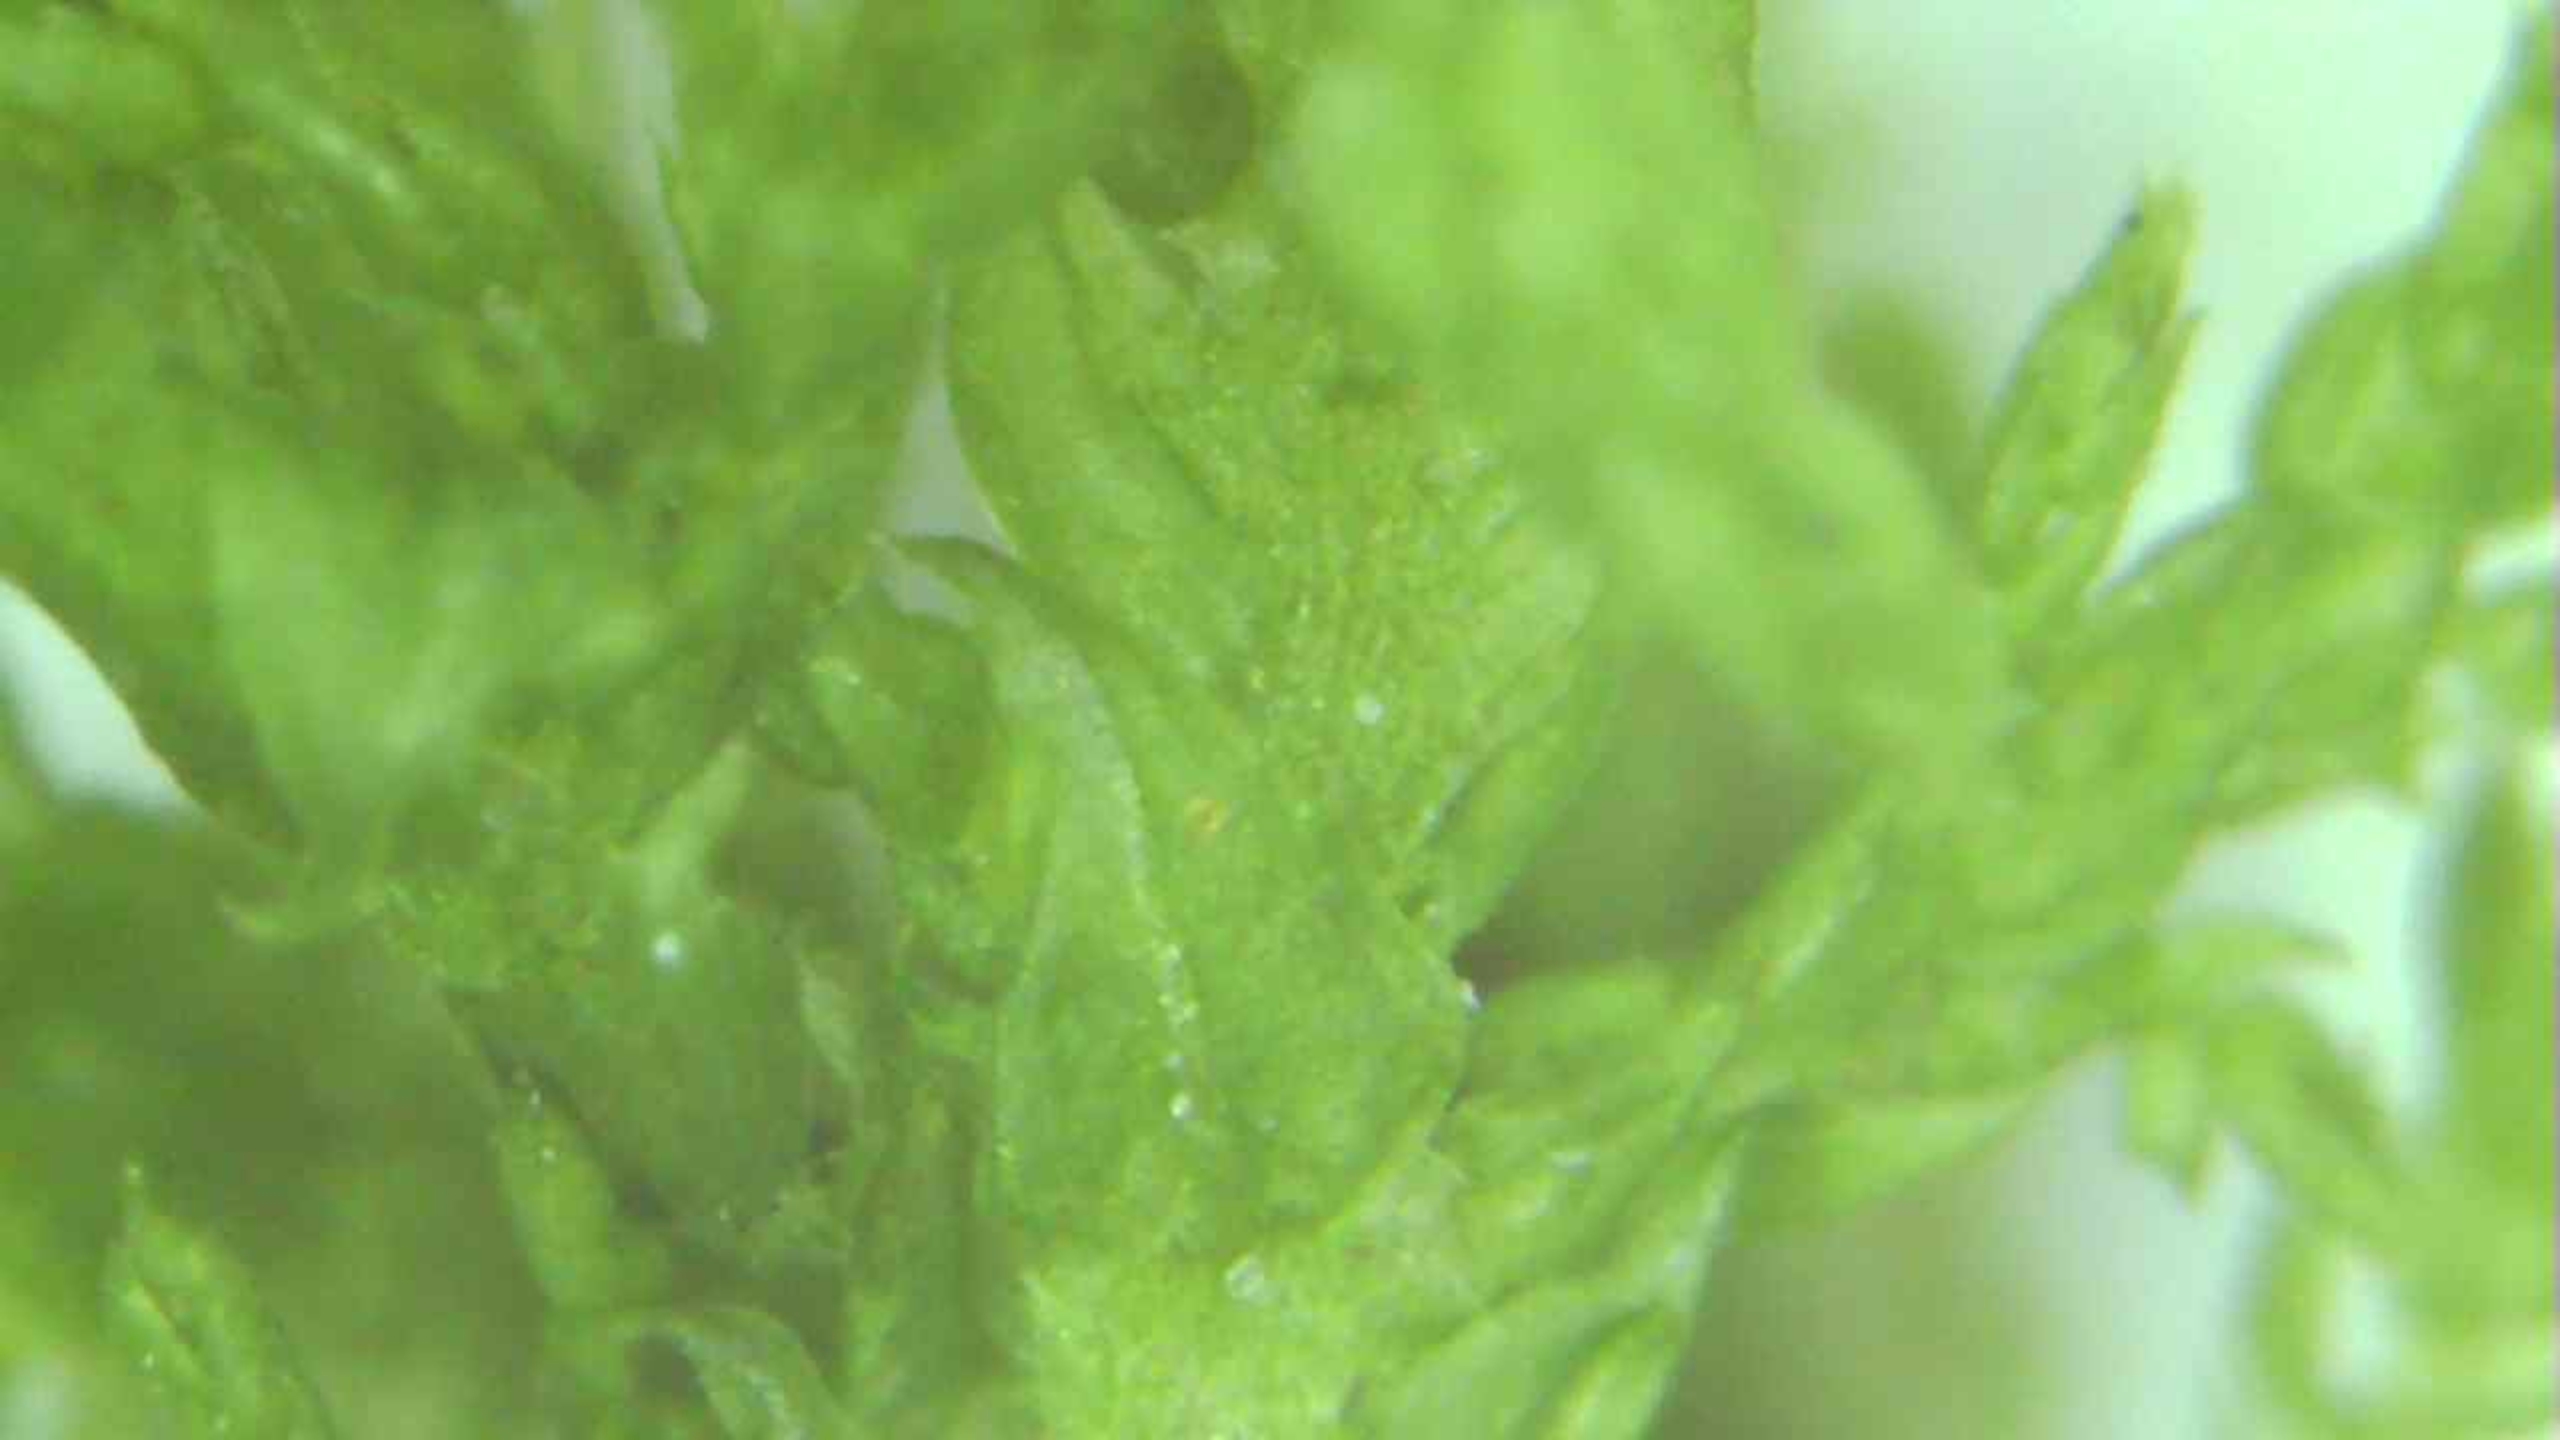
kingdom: Plantae
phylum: Bryophyta
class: Bryopsida
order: Hypnales
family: Thuidiaceae
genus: Thuidium
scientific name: Thuidium tamariscinum
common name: Pryd-bregnemos
